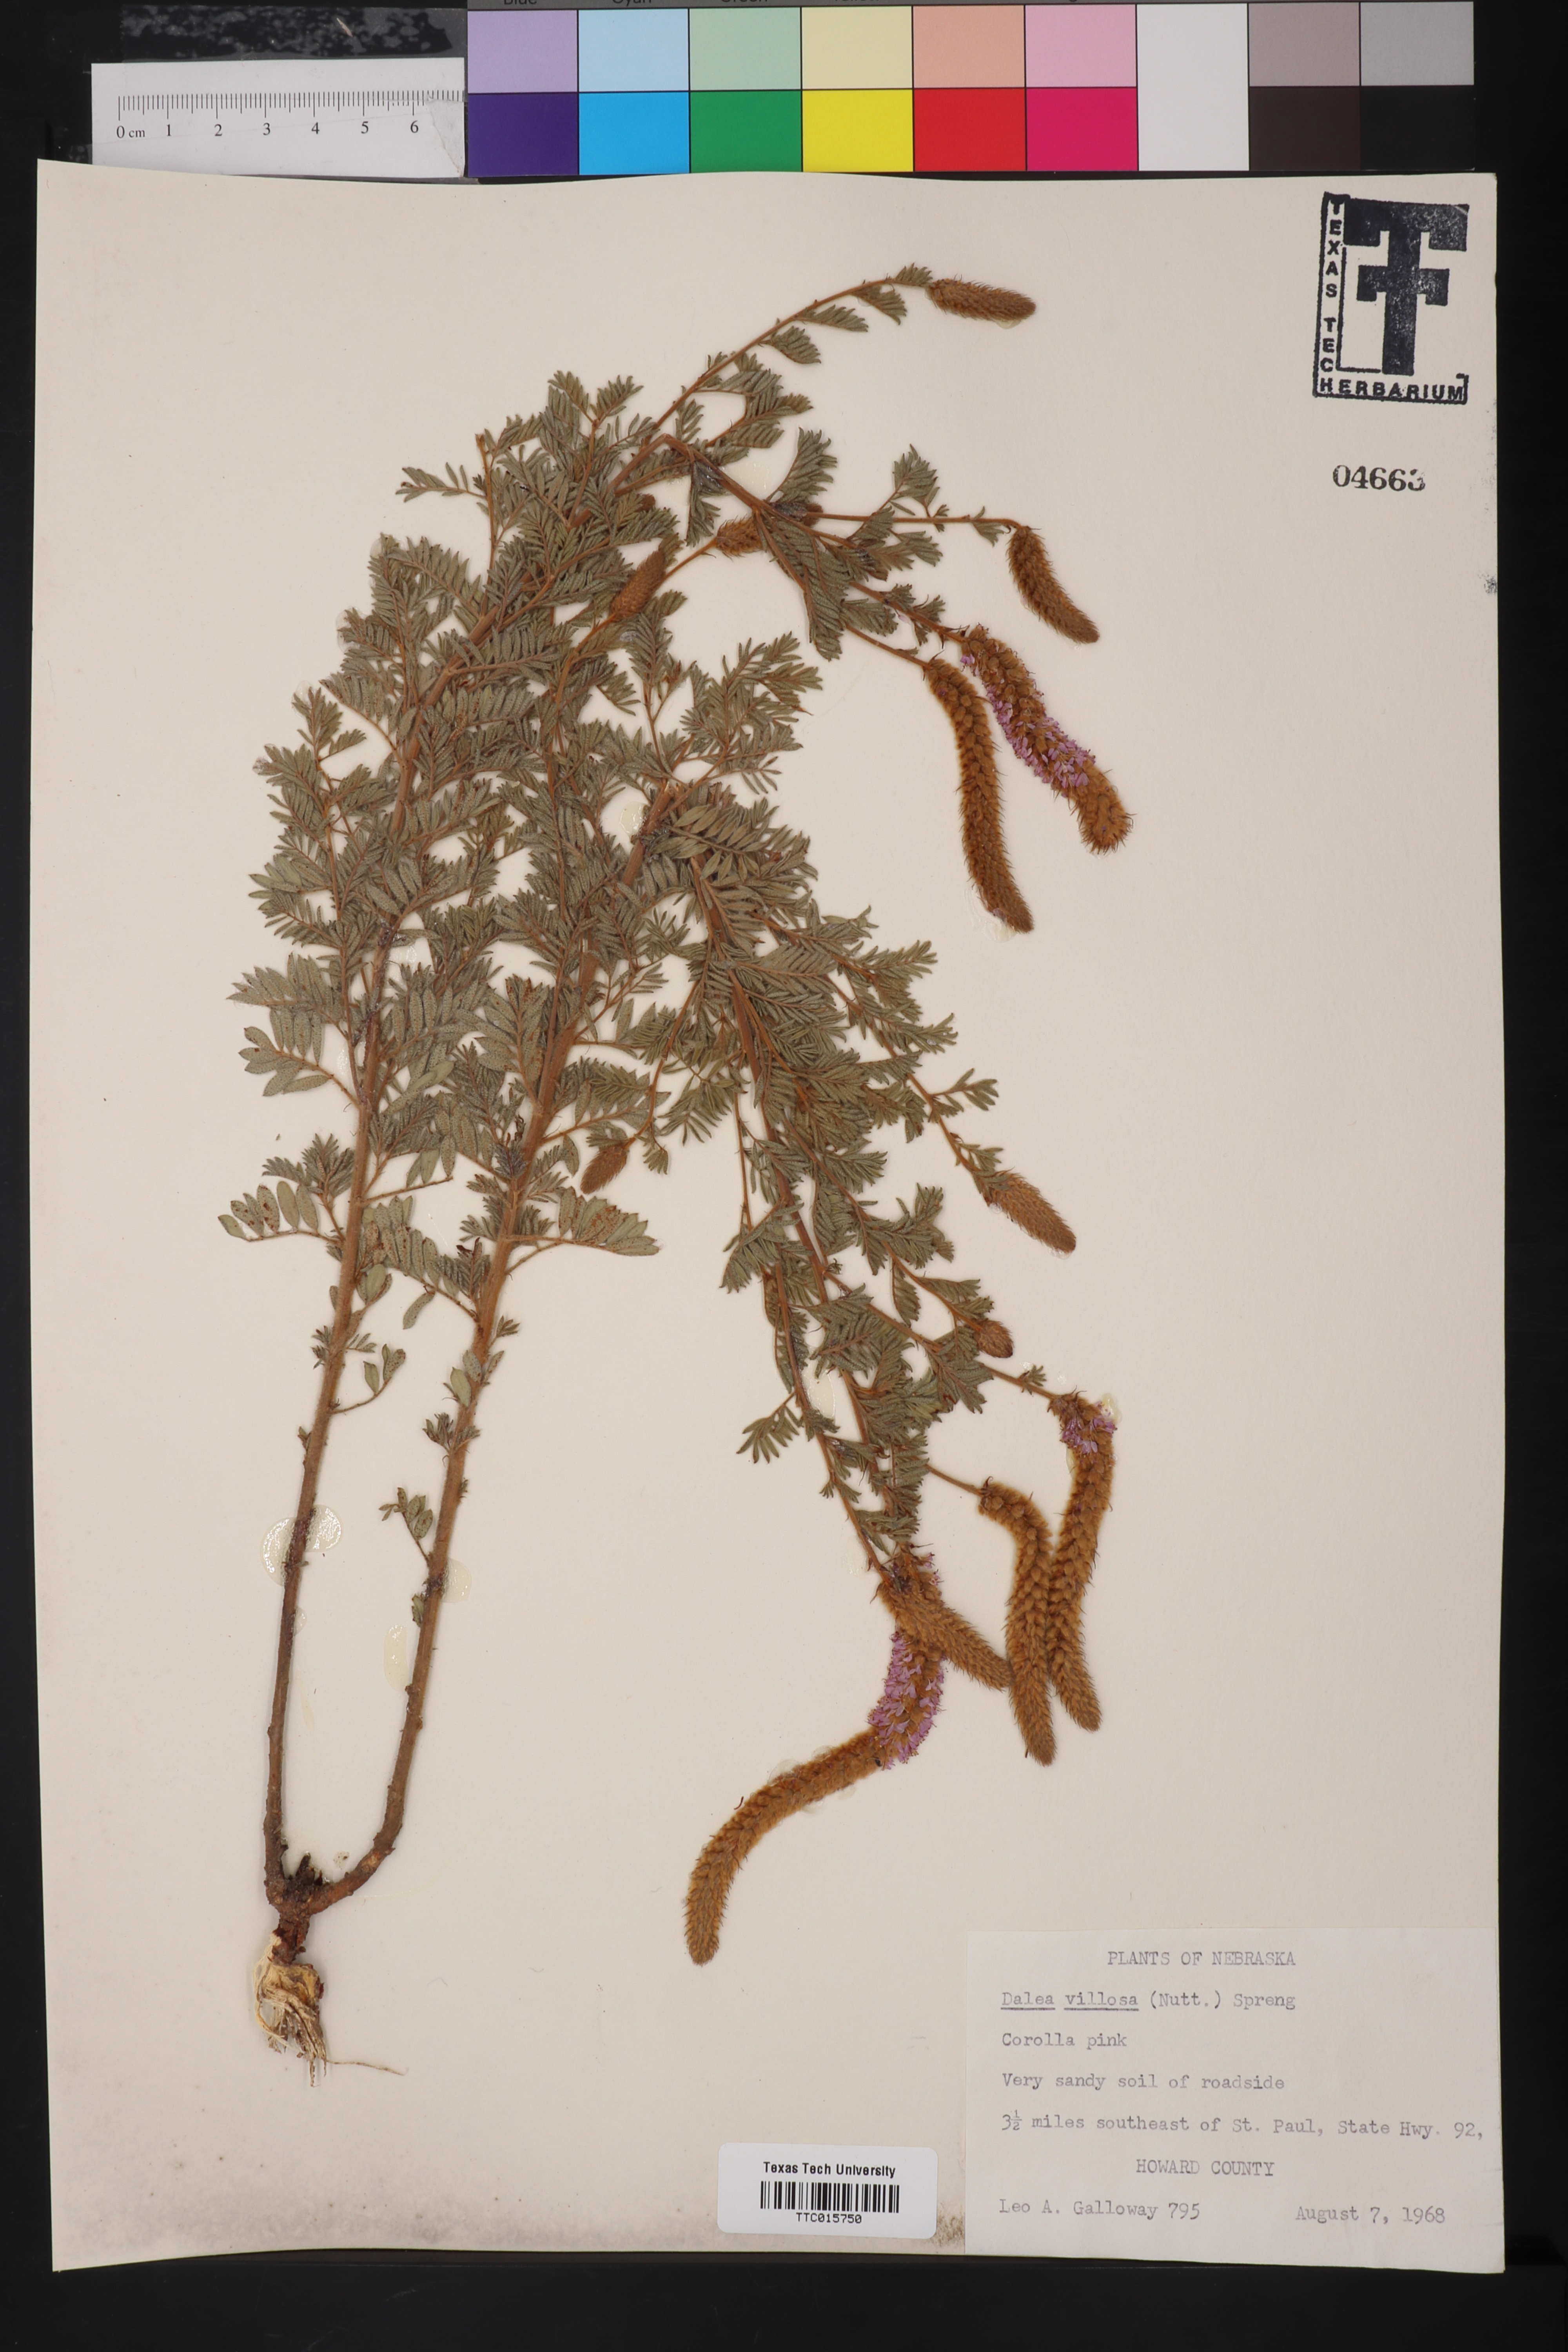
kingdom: Plantae
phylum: Tracheophyta
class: Magnoliopsida
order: Fabales
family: Fabaceae
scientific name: Fabaceae
